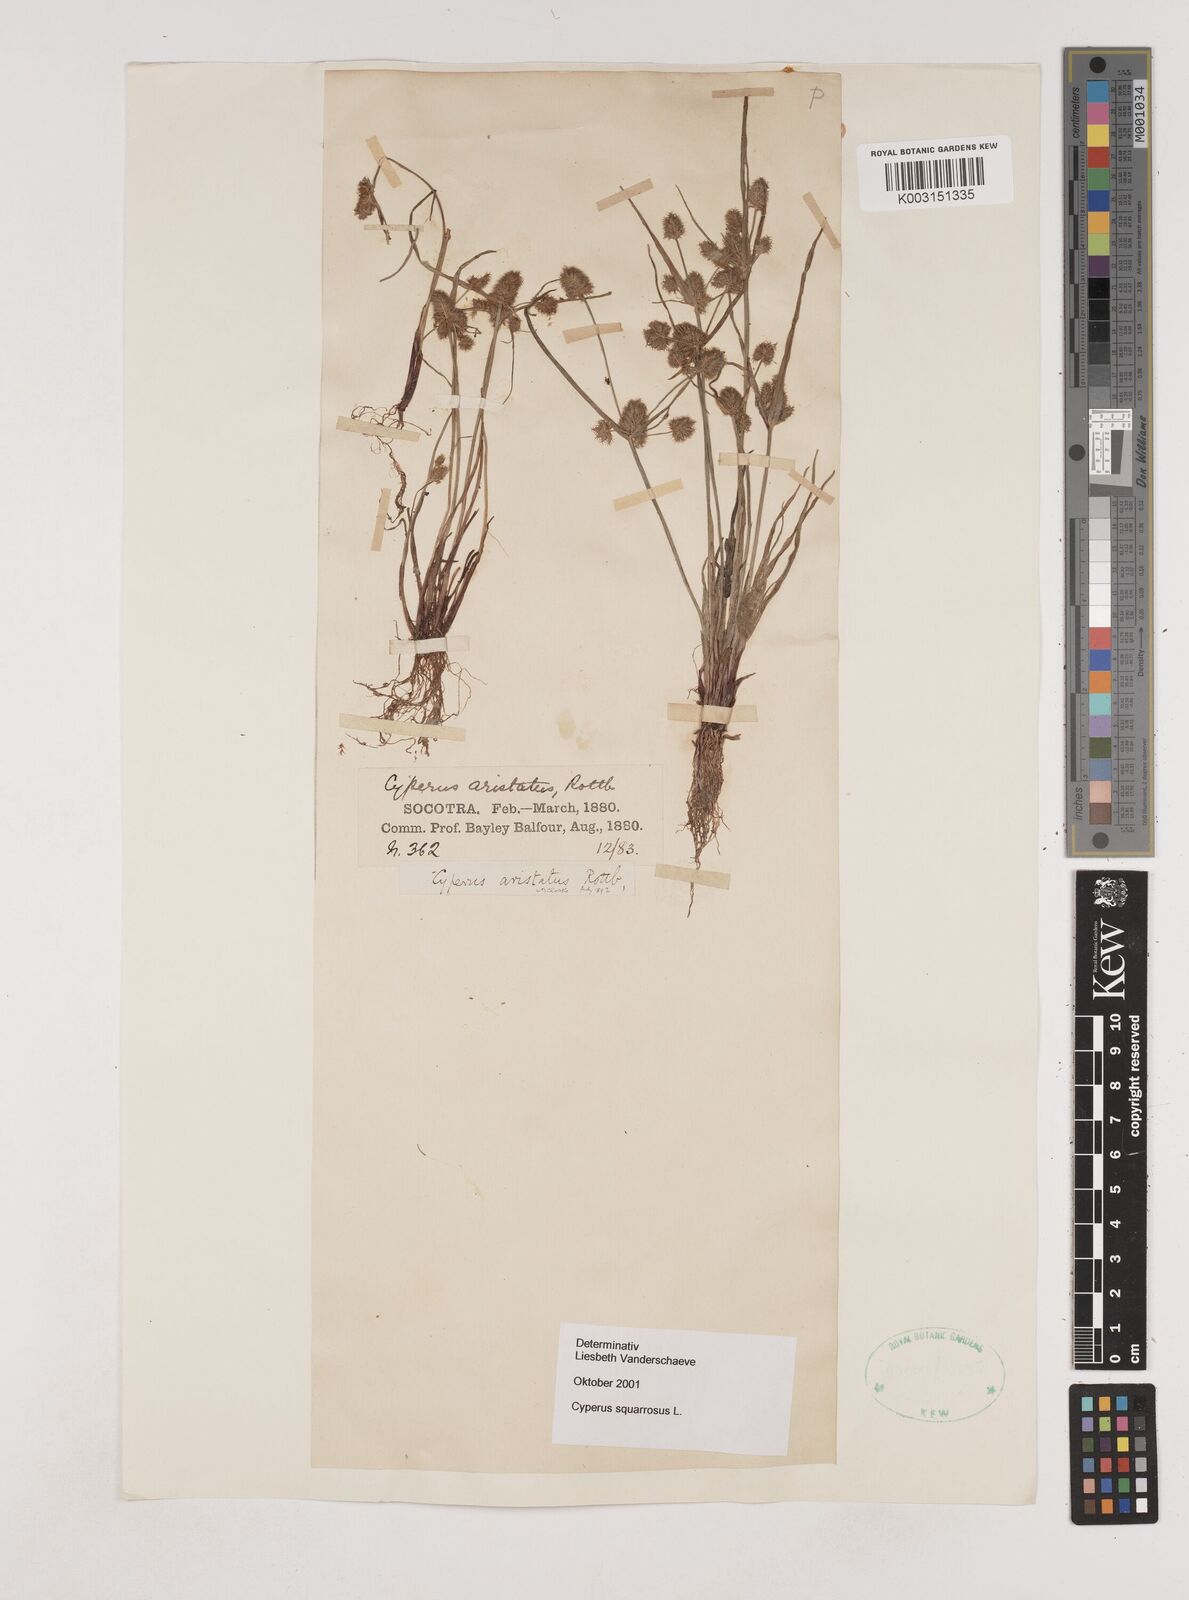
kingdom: Plantae
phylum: Tracheophyta
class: Liliopsida
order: Poales
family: Cyperaceae
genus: Cyperus
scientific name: Cyperus squarrosus
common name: Awned cyperus
